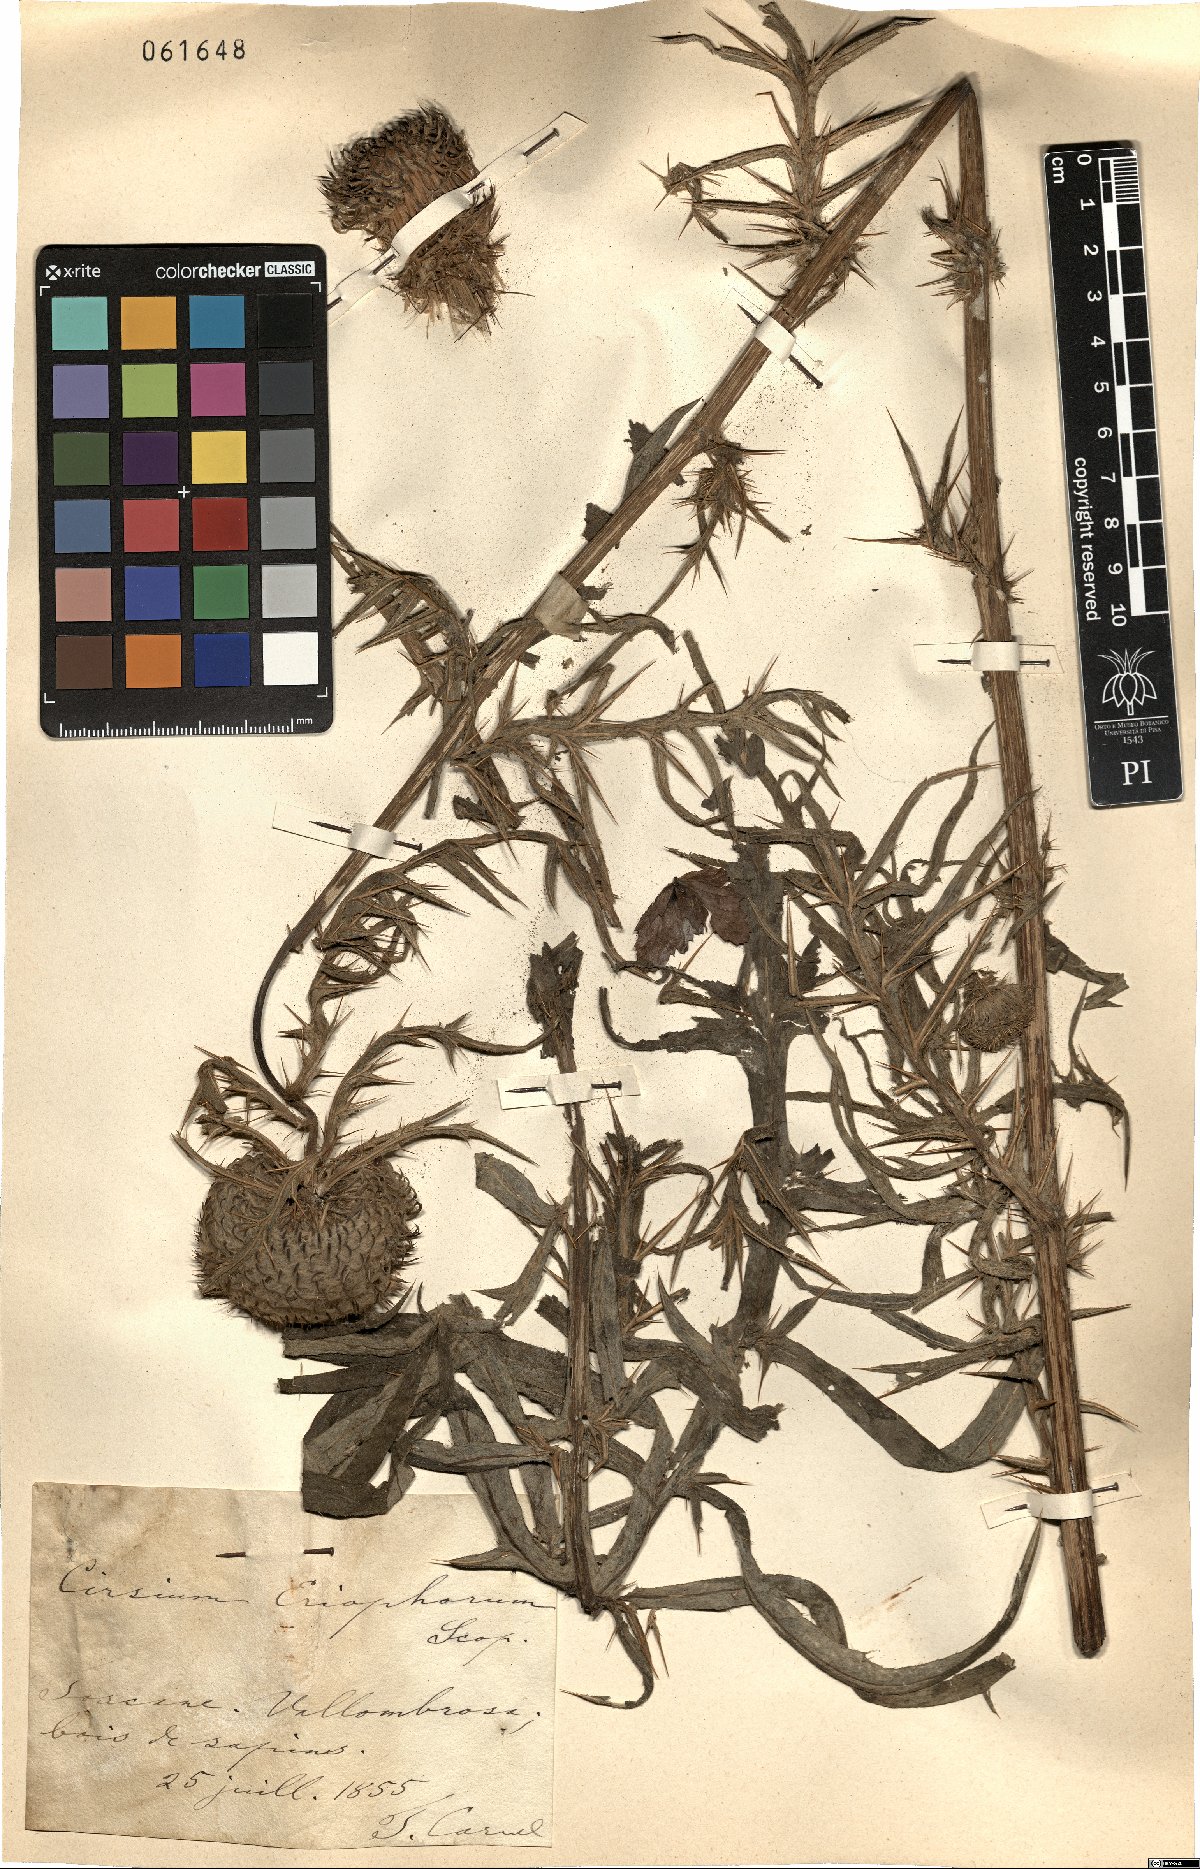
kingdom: Plantae
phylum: Tracheophyta
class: Magnoliopsida
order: Asterales
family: Asteraceae
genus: Lophiolepis
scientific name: Lophiolepis eriophora
